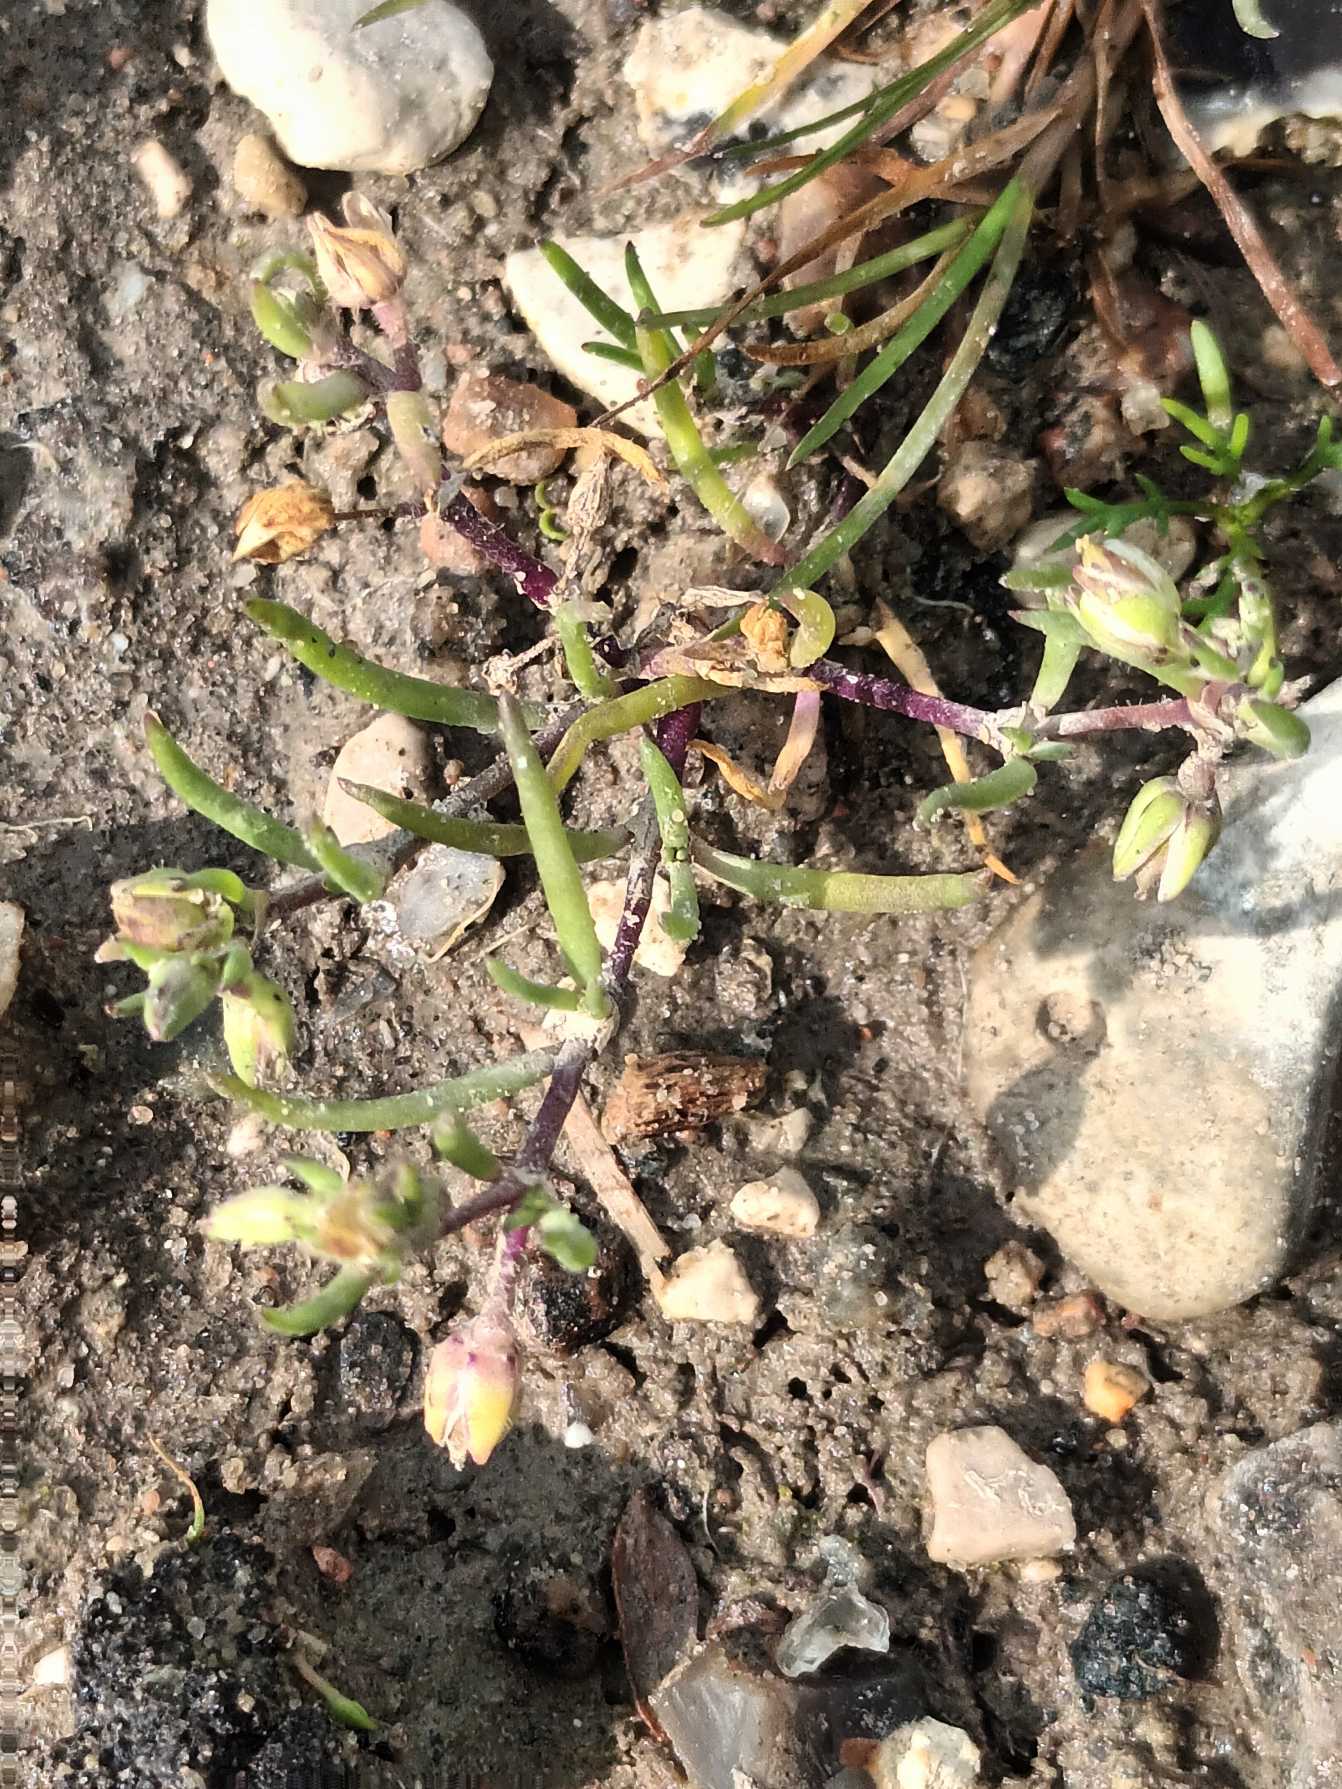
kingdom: Plantae
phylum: Tracheophyta
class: Magnoliopsida
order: Caryophyllales
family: Caryophyllaceae
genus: Spergularia
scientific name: Spergularia marina
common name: Kødet hindeknæ
